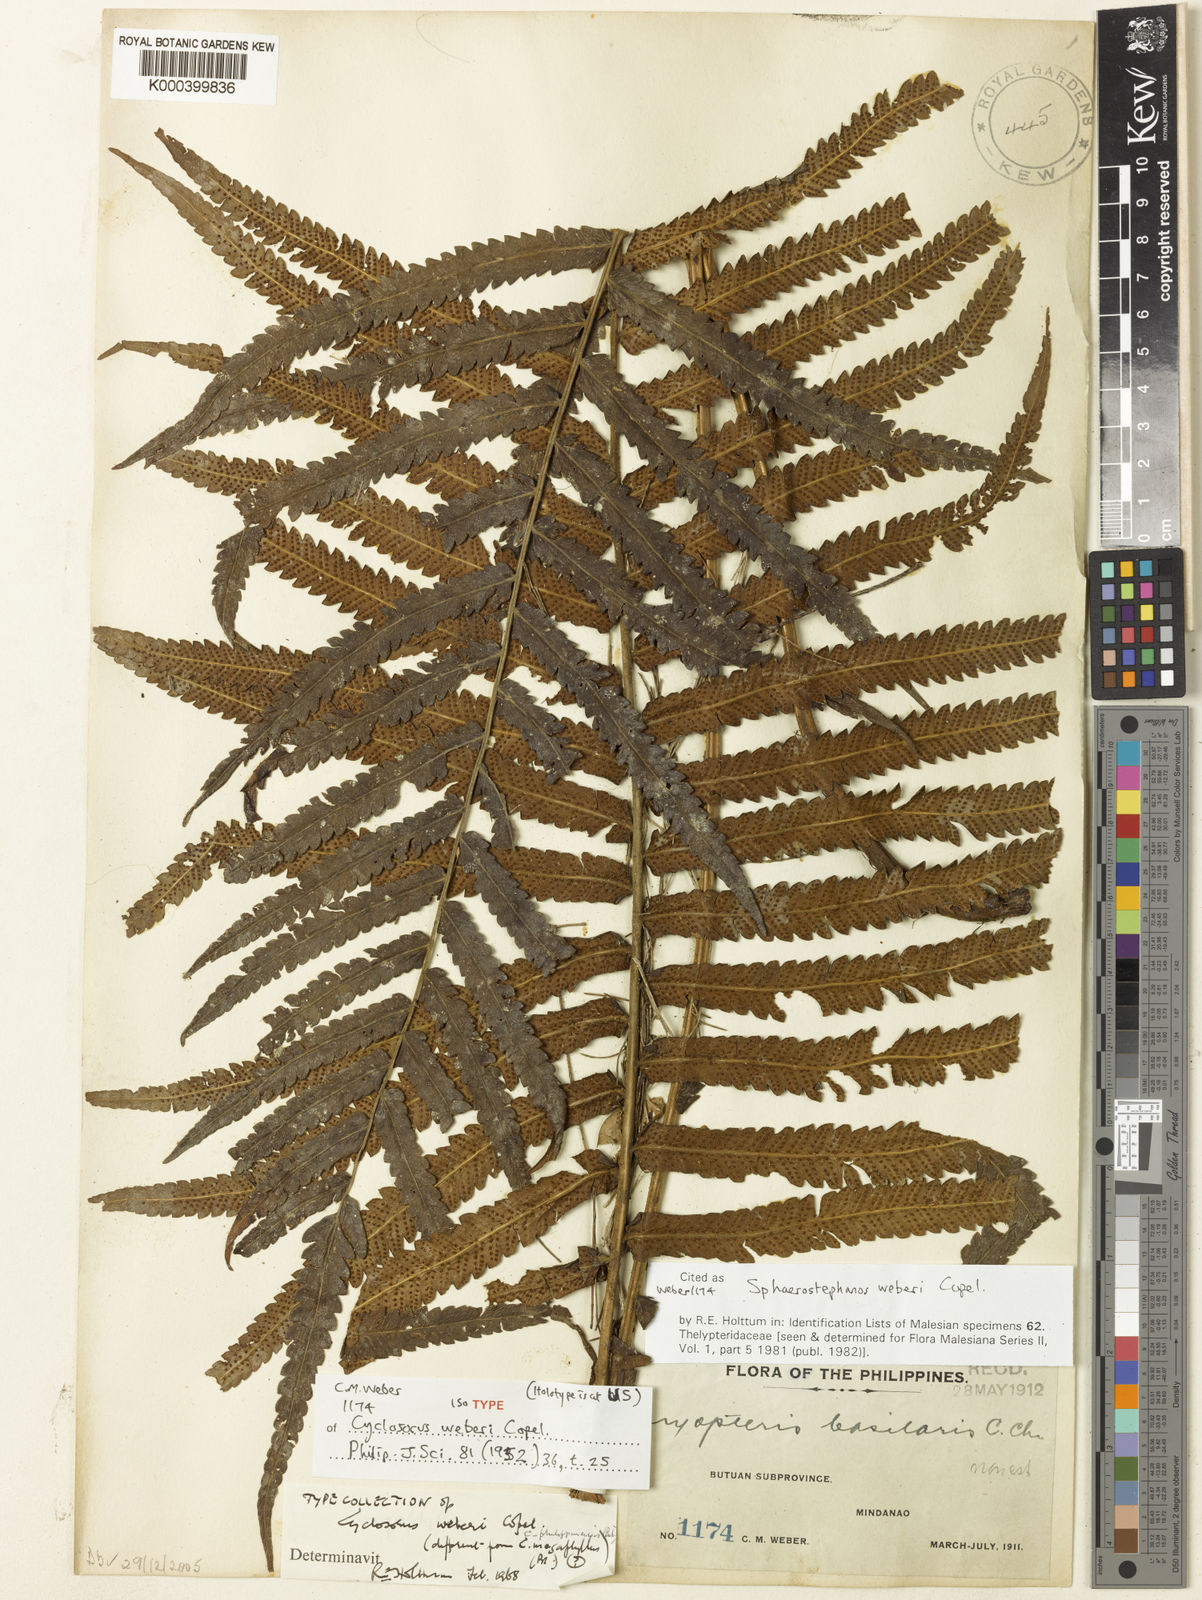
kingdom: Plantae
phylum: Tracheophyta
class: Polypodiopsida
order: Polypodiales
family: Thelypteridaceae
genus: Sphaerostephanos
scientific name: Sphaerostephanos productus
